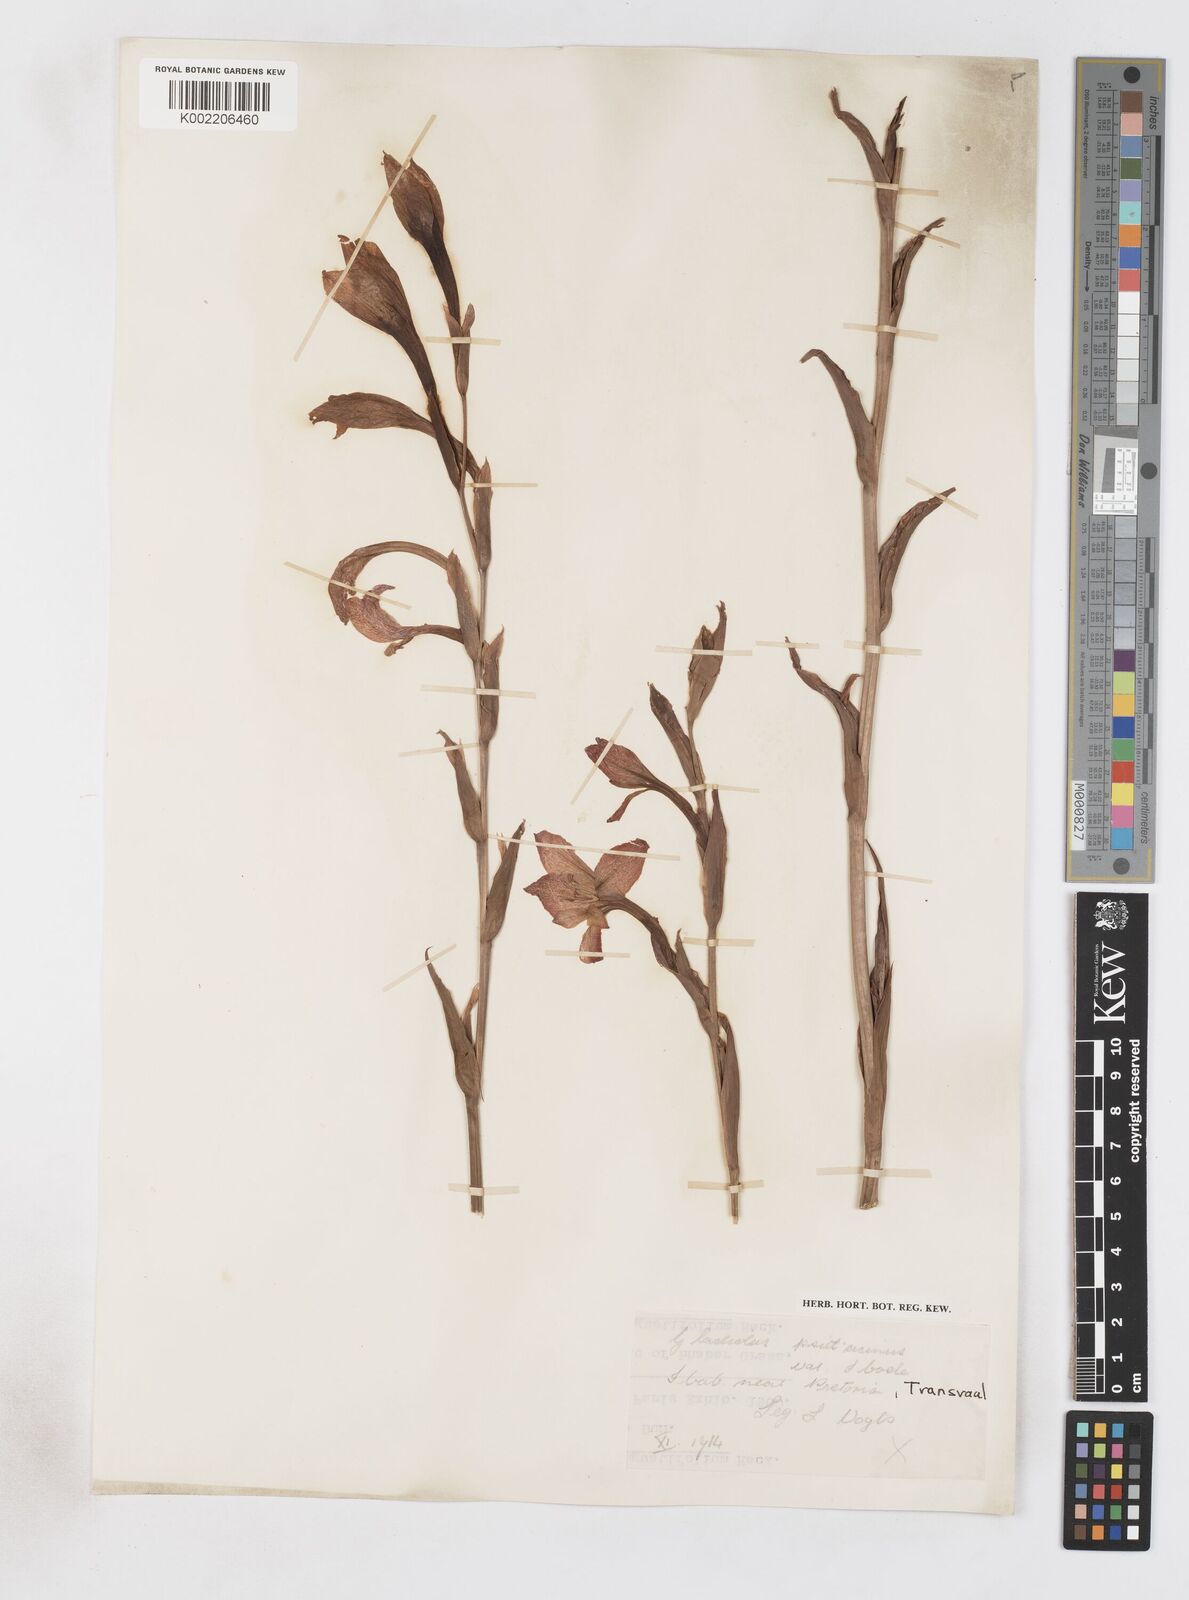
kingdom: Plantae
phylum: Tracheophyta
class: Liliopsida
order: Asparagales
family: Iridaceae
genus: Gladiolus
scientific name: Gladiolus antholyzoides
